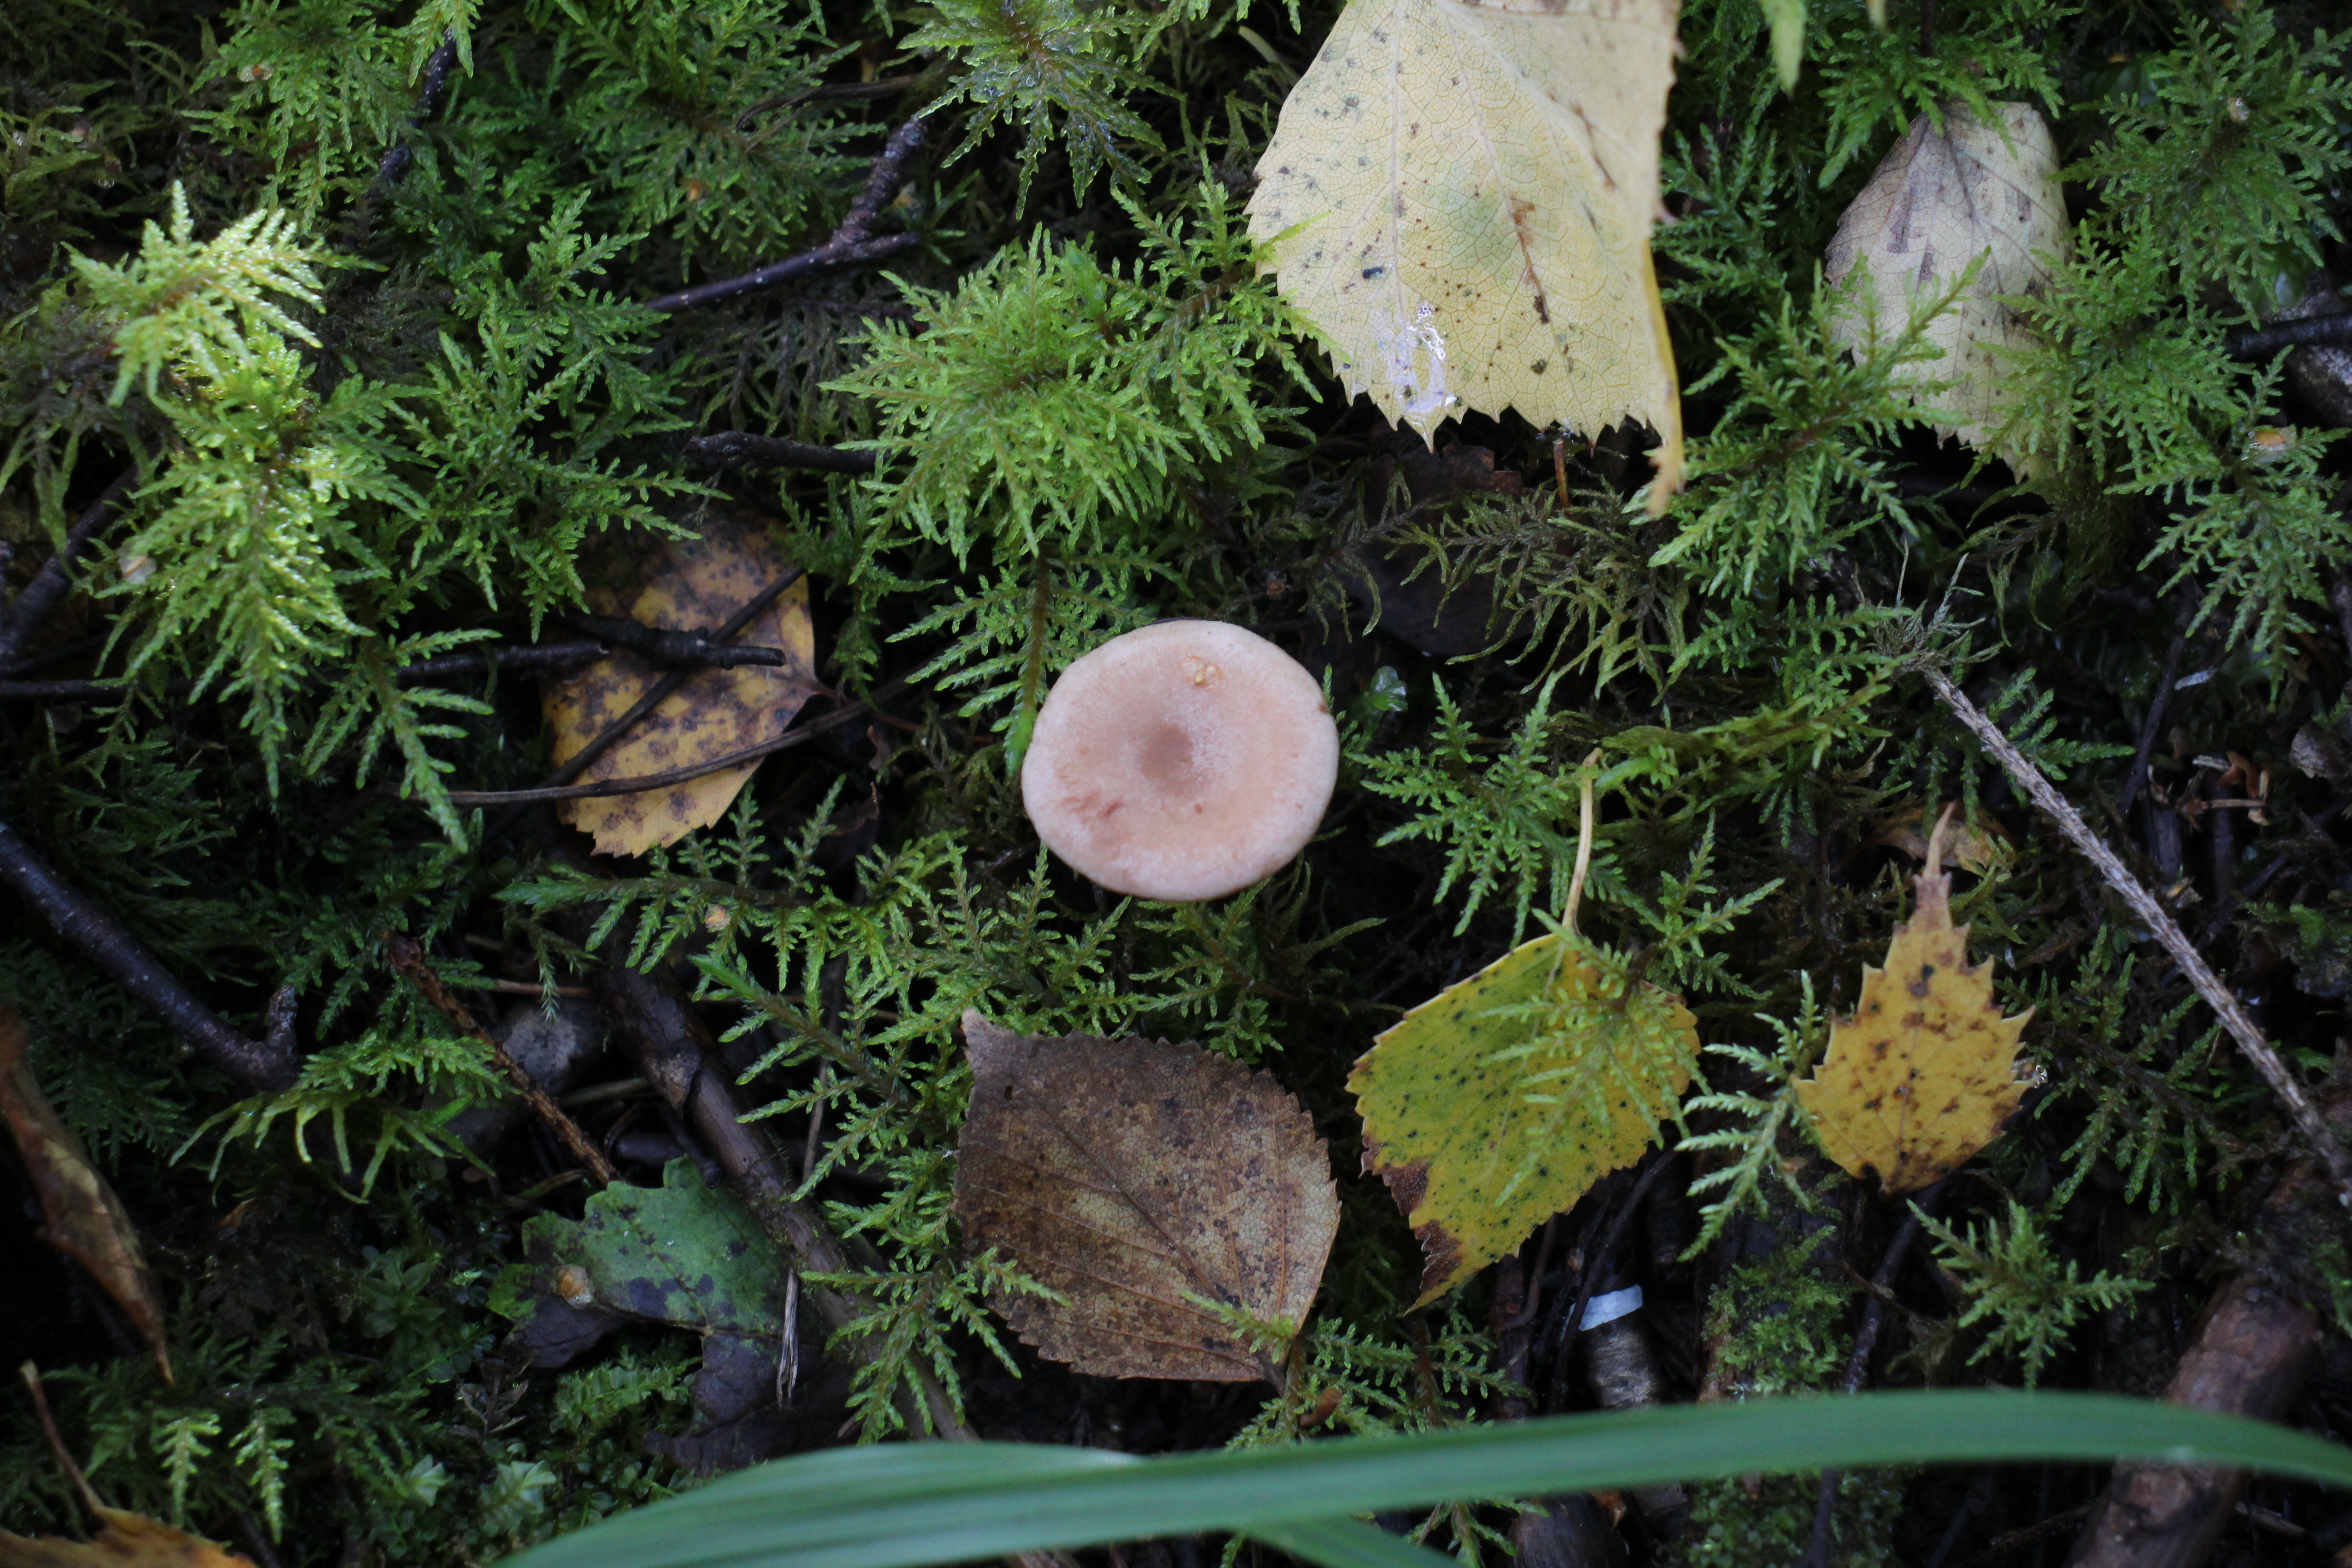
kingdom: Fungi
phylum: Basidiomycota
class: Agaricomycetes
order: Russulales
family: Russulaceae
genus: Lactarius
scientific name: Lactarius glyciosmus
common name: Coconut milkcap
